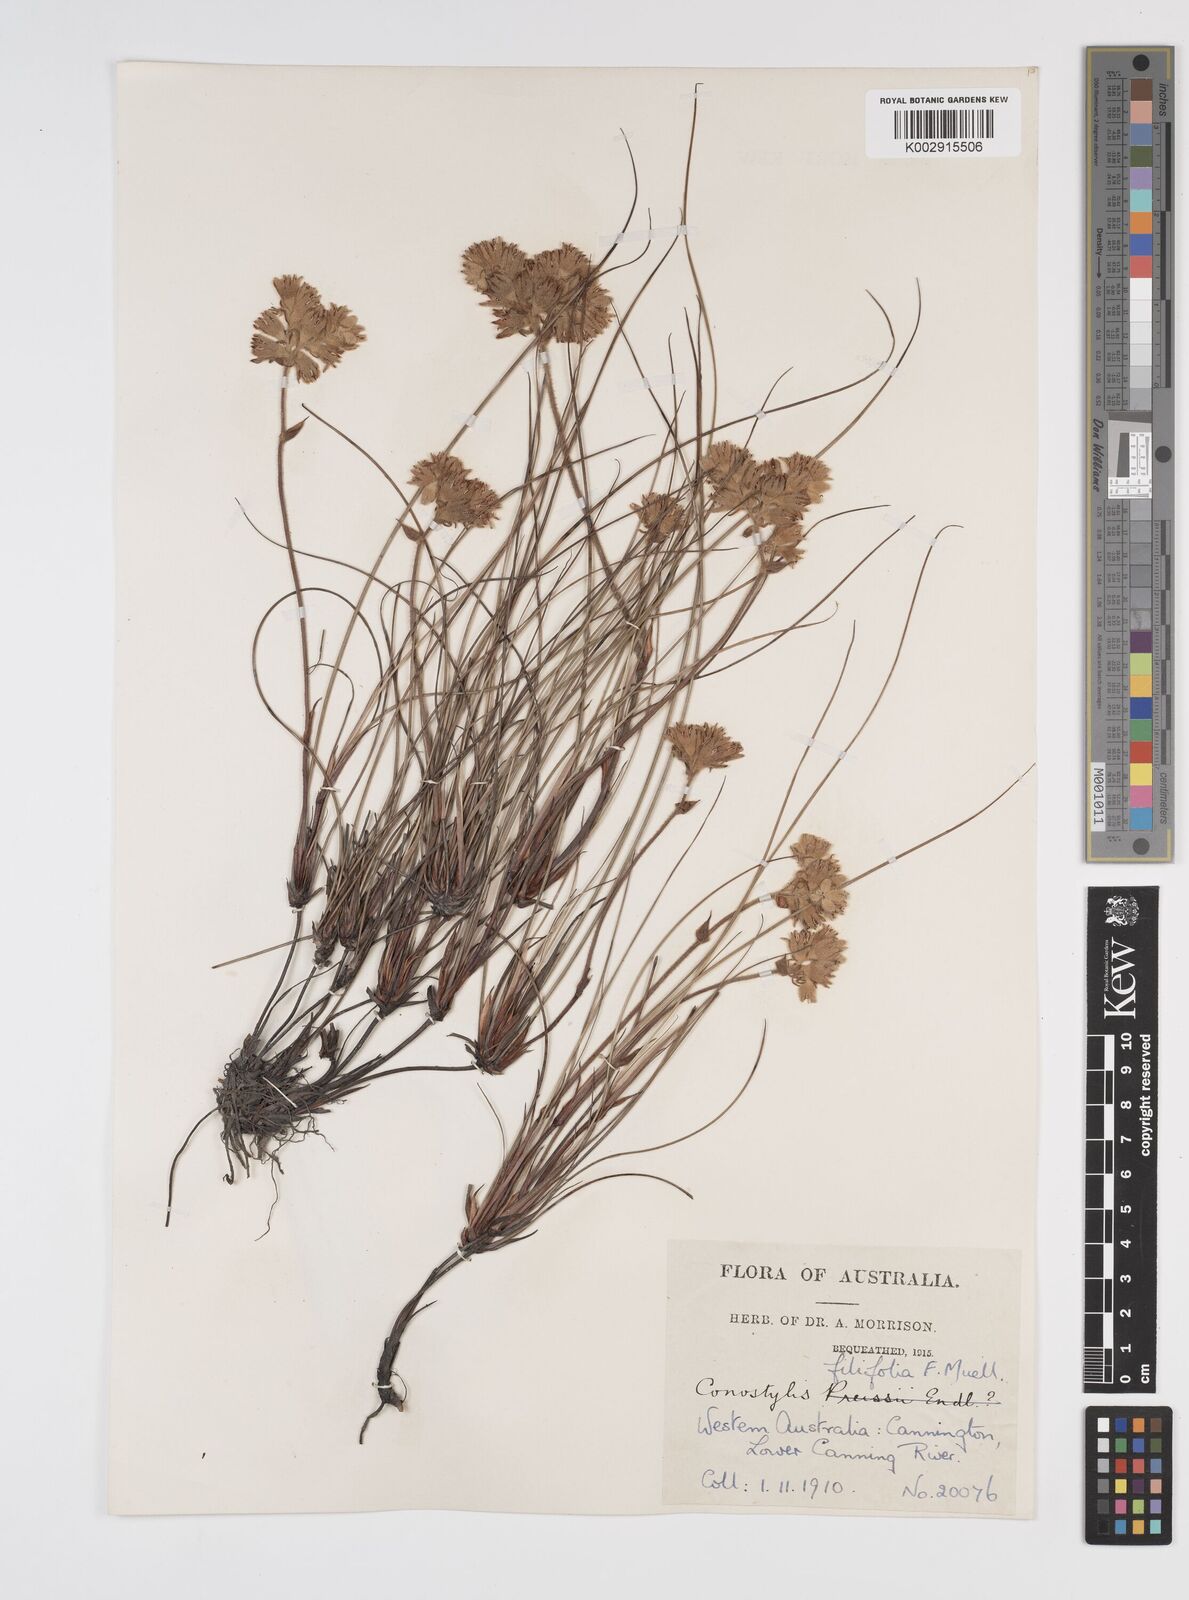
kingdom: Plantae
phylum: Tracheophyta
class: Liliopsida
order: Commelinales
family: Haemodoraceae
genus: Conostylis
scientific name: Conostylis festucacea
